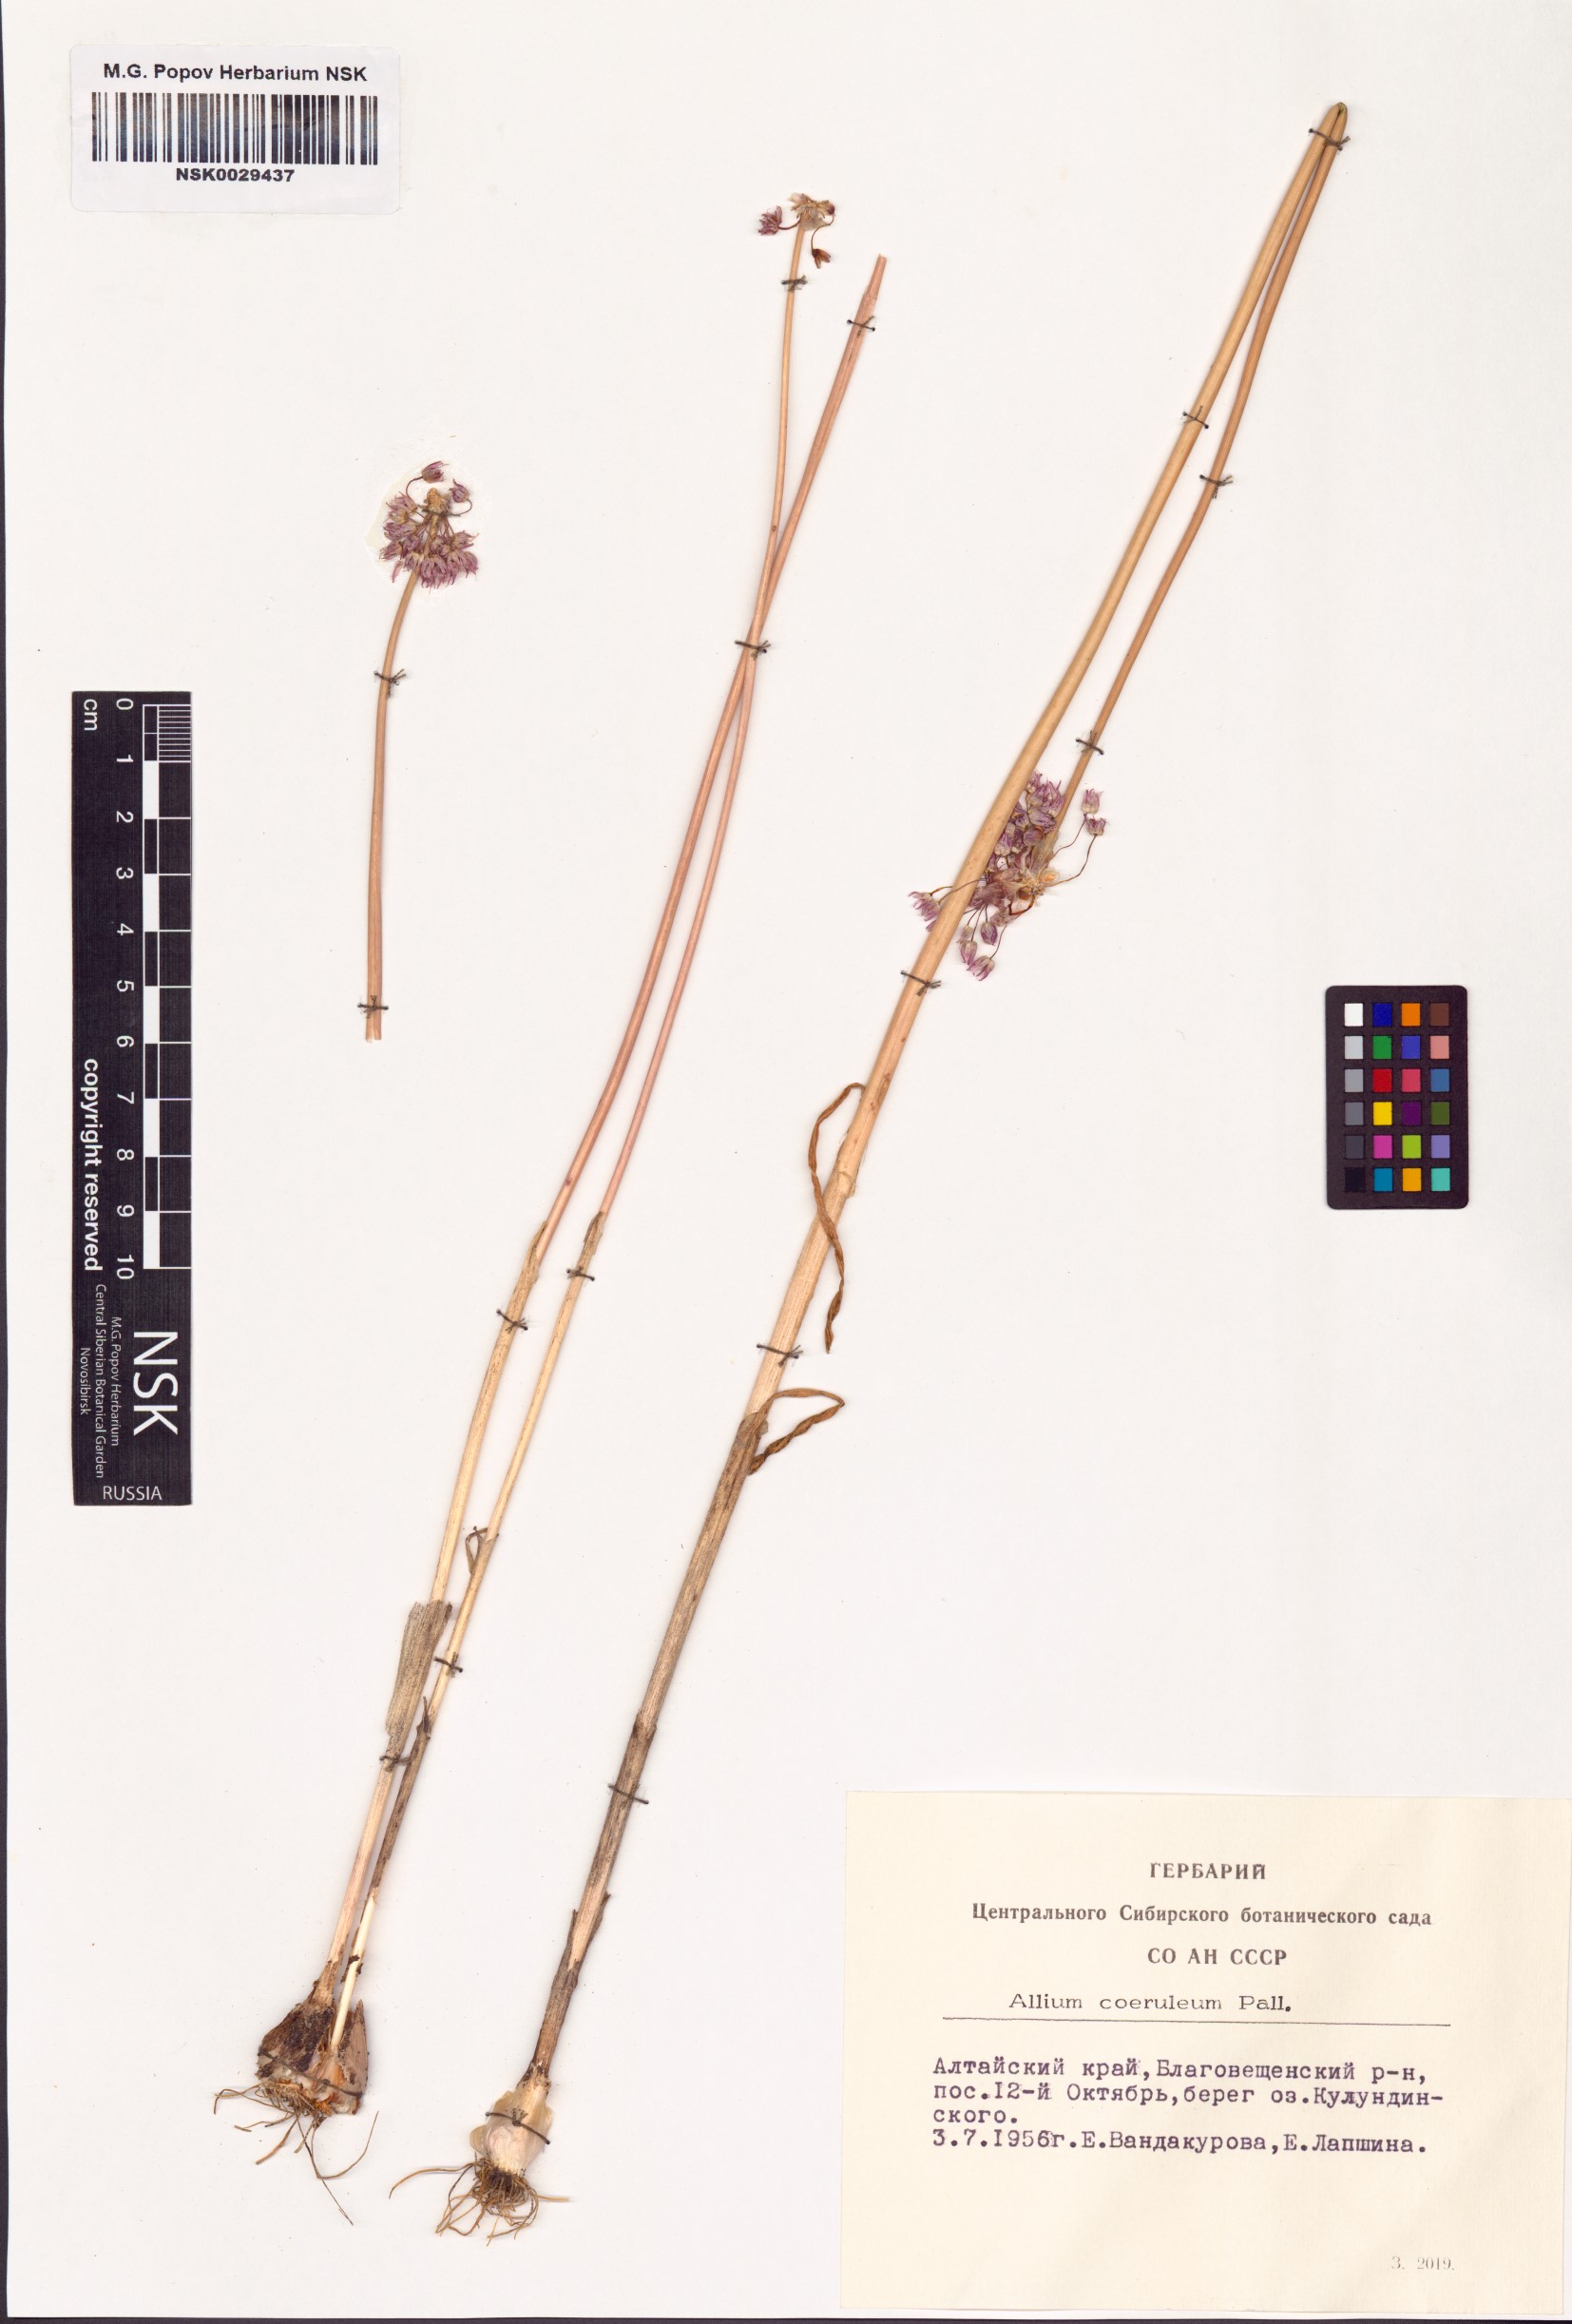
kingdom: Plantae
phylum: Tracheophyta
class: Liliopsida
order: Asparagales
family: Amaryllidaceae
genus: Allium
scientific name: Allium caeruleum
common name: Blue-of-the-heavens
